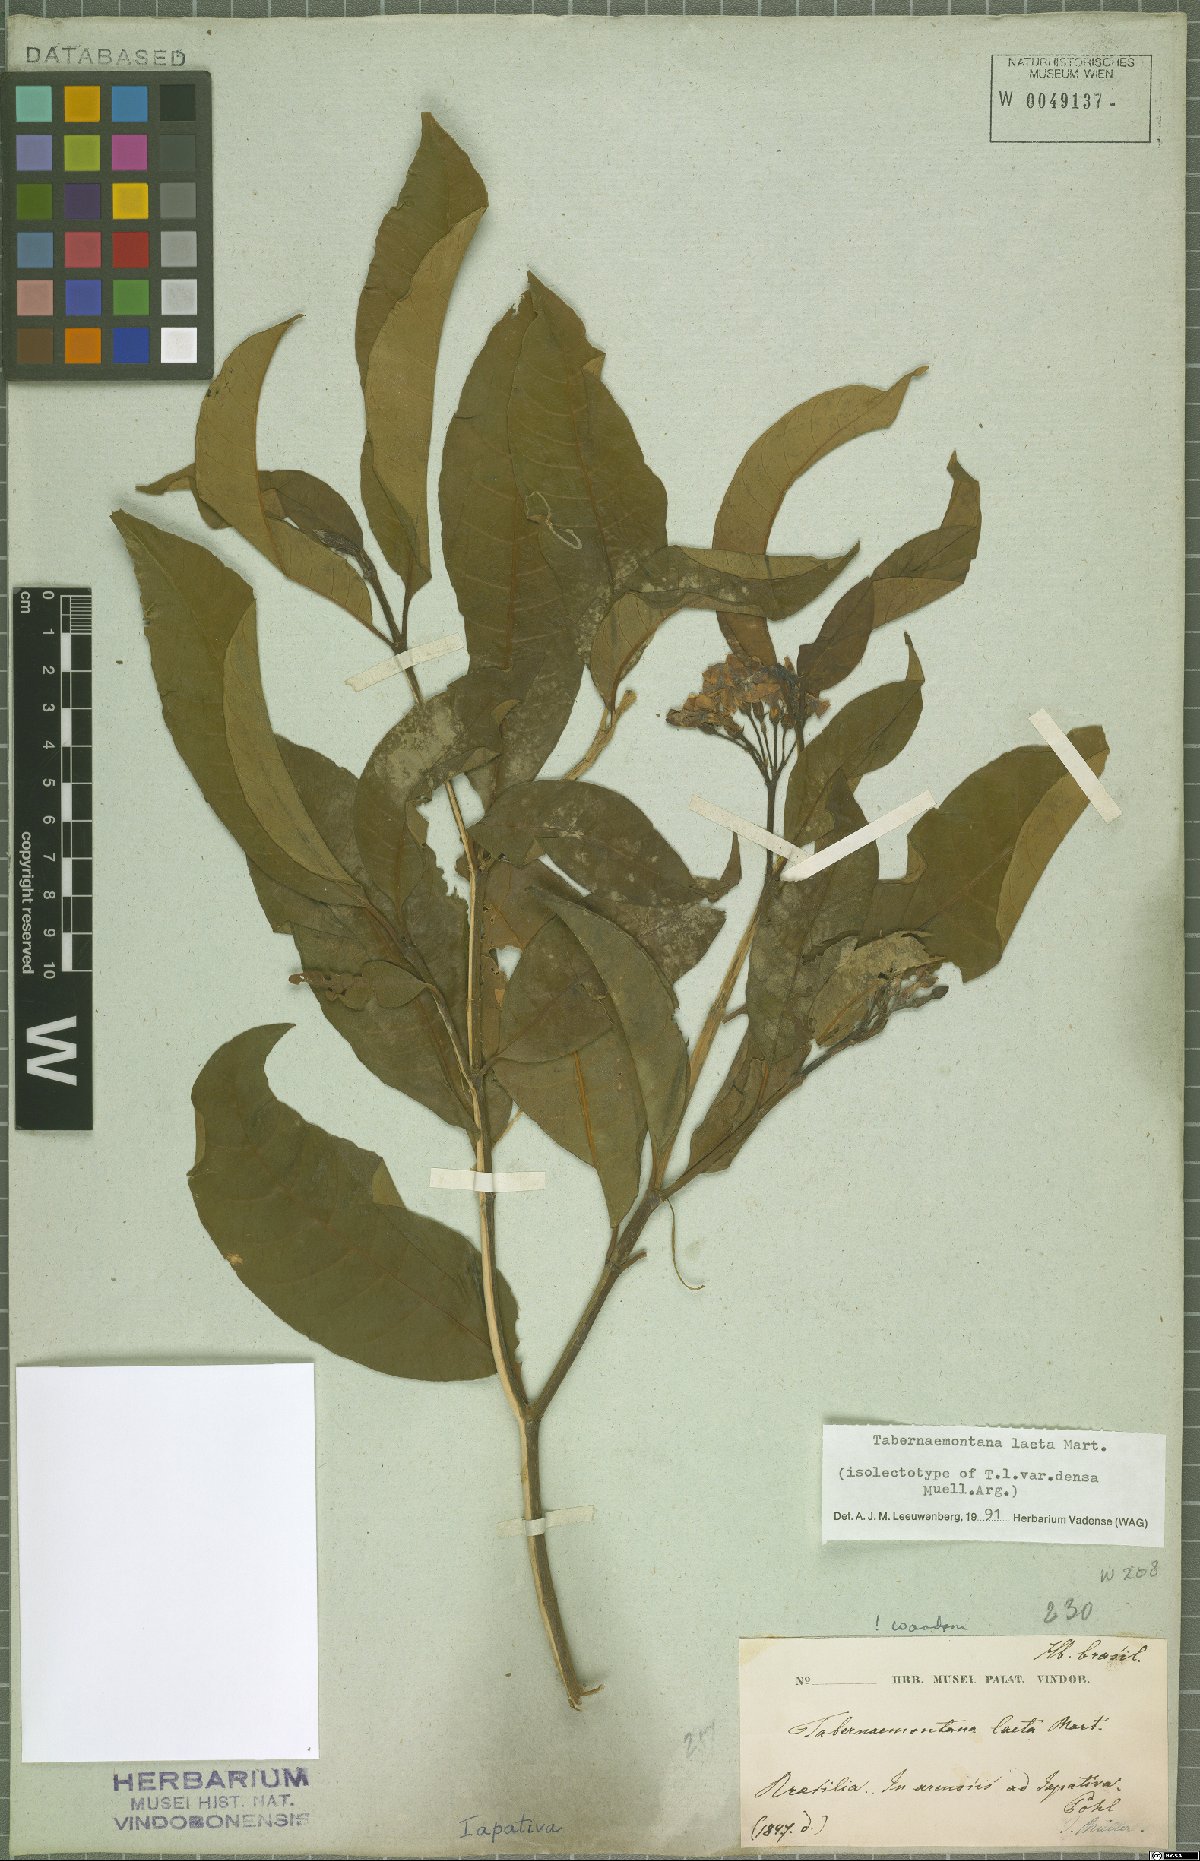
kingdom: Plantae
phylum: Tracheophyta
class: Magnoliopsida
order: Gentianales
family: Apocynaceae
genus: Tabernaemontana
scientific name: Tabernaemontana laeta
